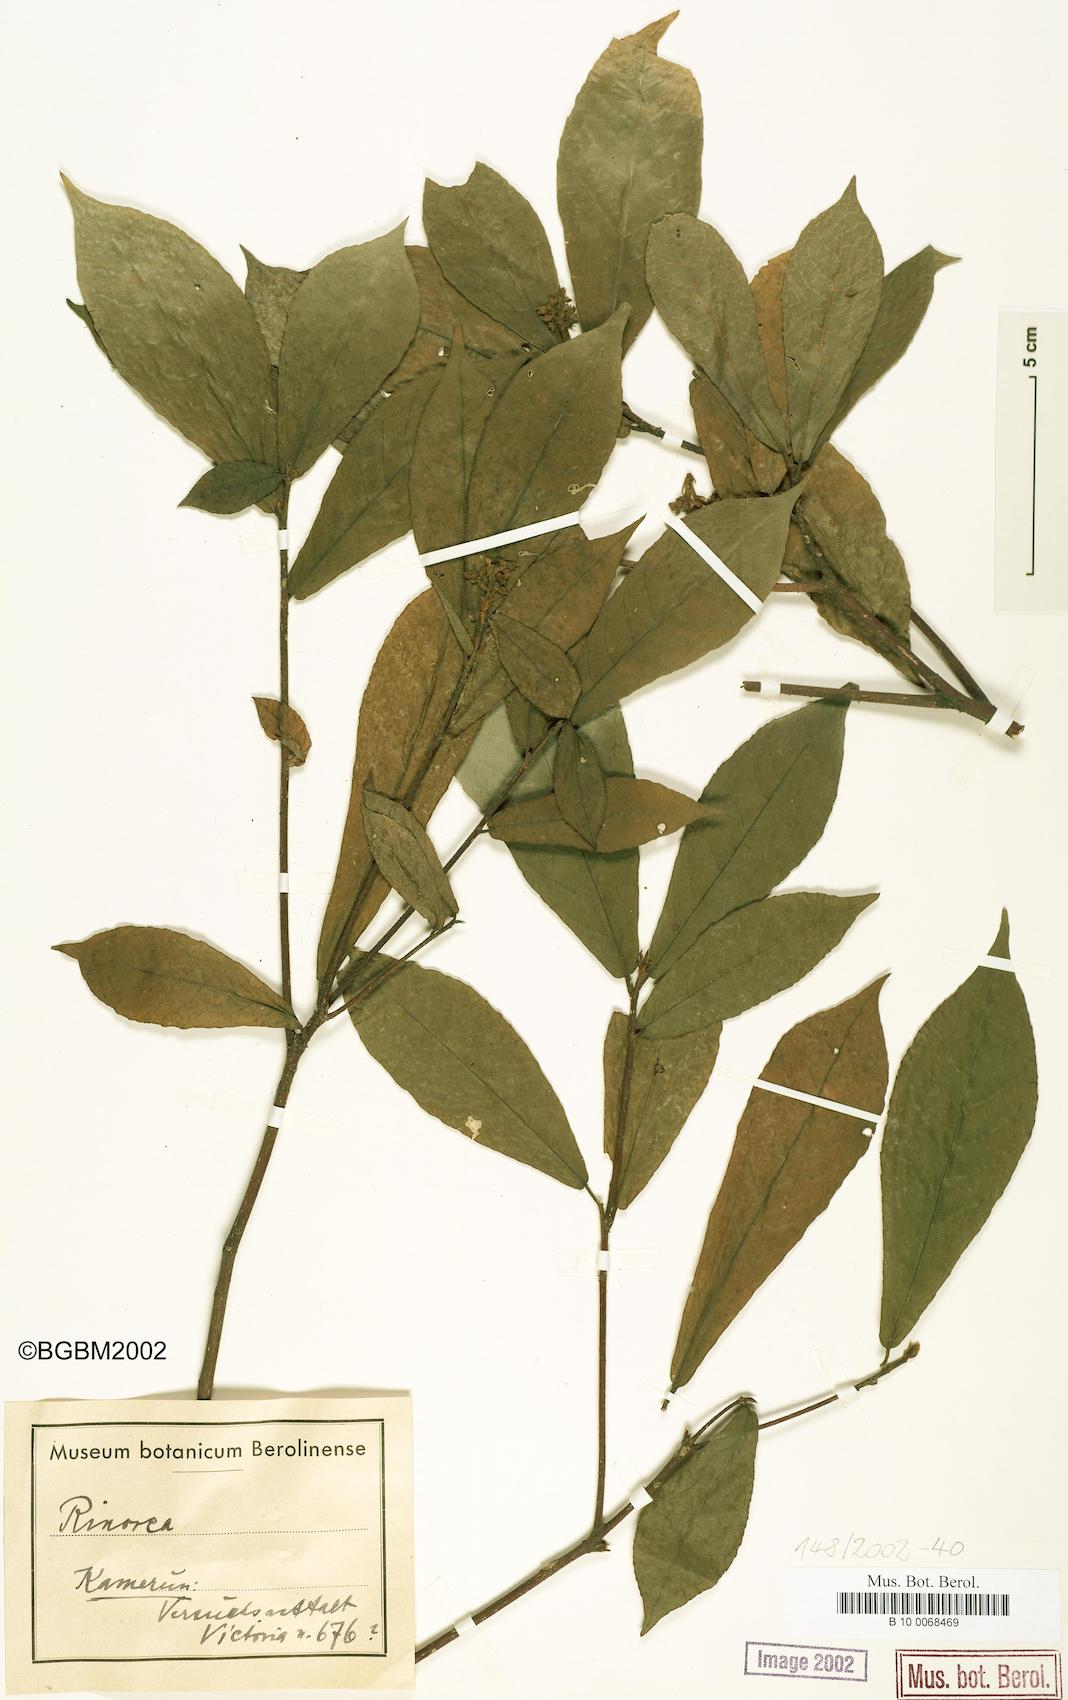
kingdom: Plantae
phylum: Tracheophyta
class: Magnoliopsida
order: Malpighiales
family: Violaceae
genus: Rinorea
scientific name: Rinorea
